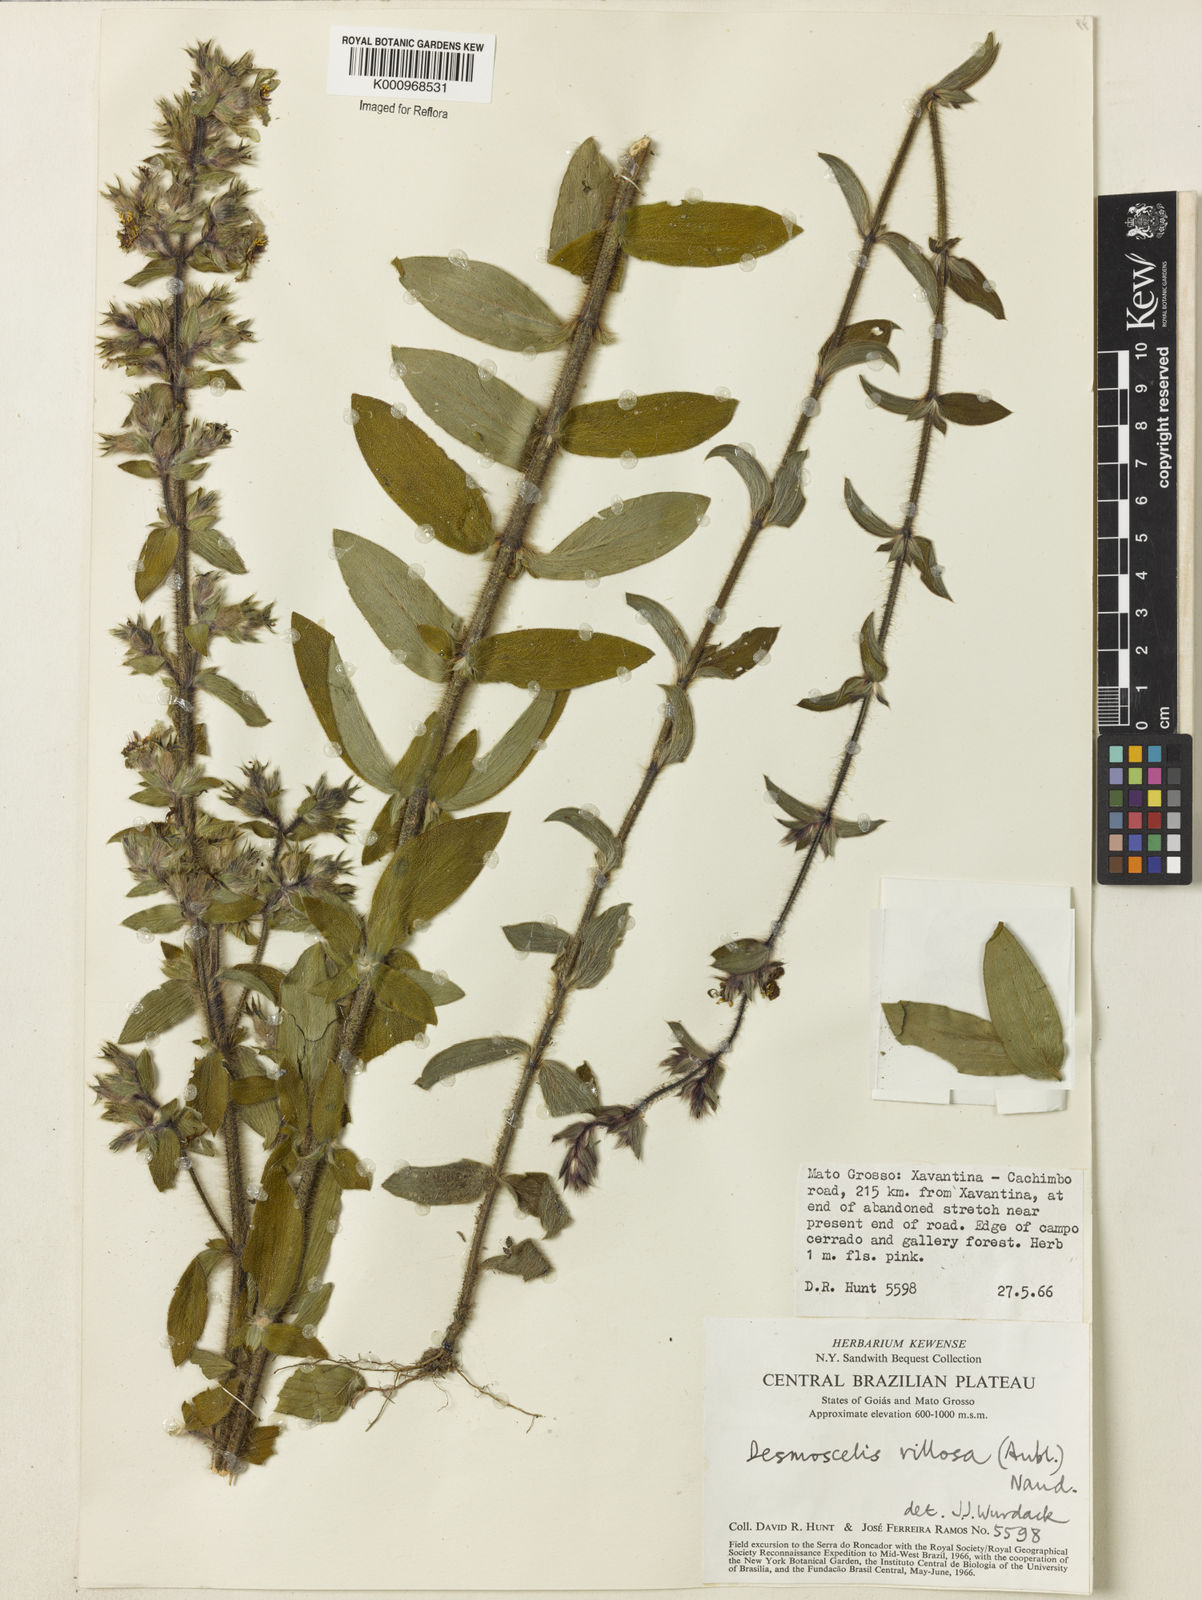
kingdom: Plantae
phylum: Tracheophyta
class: Magnoliopsida
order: Myrtales
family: Melastomataceae
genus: Desmoscelis
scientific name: Desmoscelis villosa
